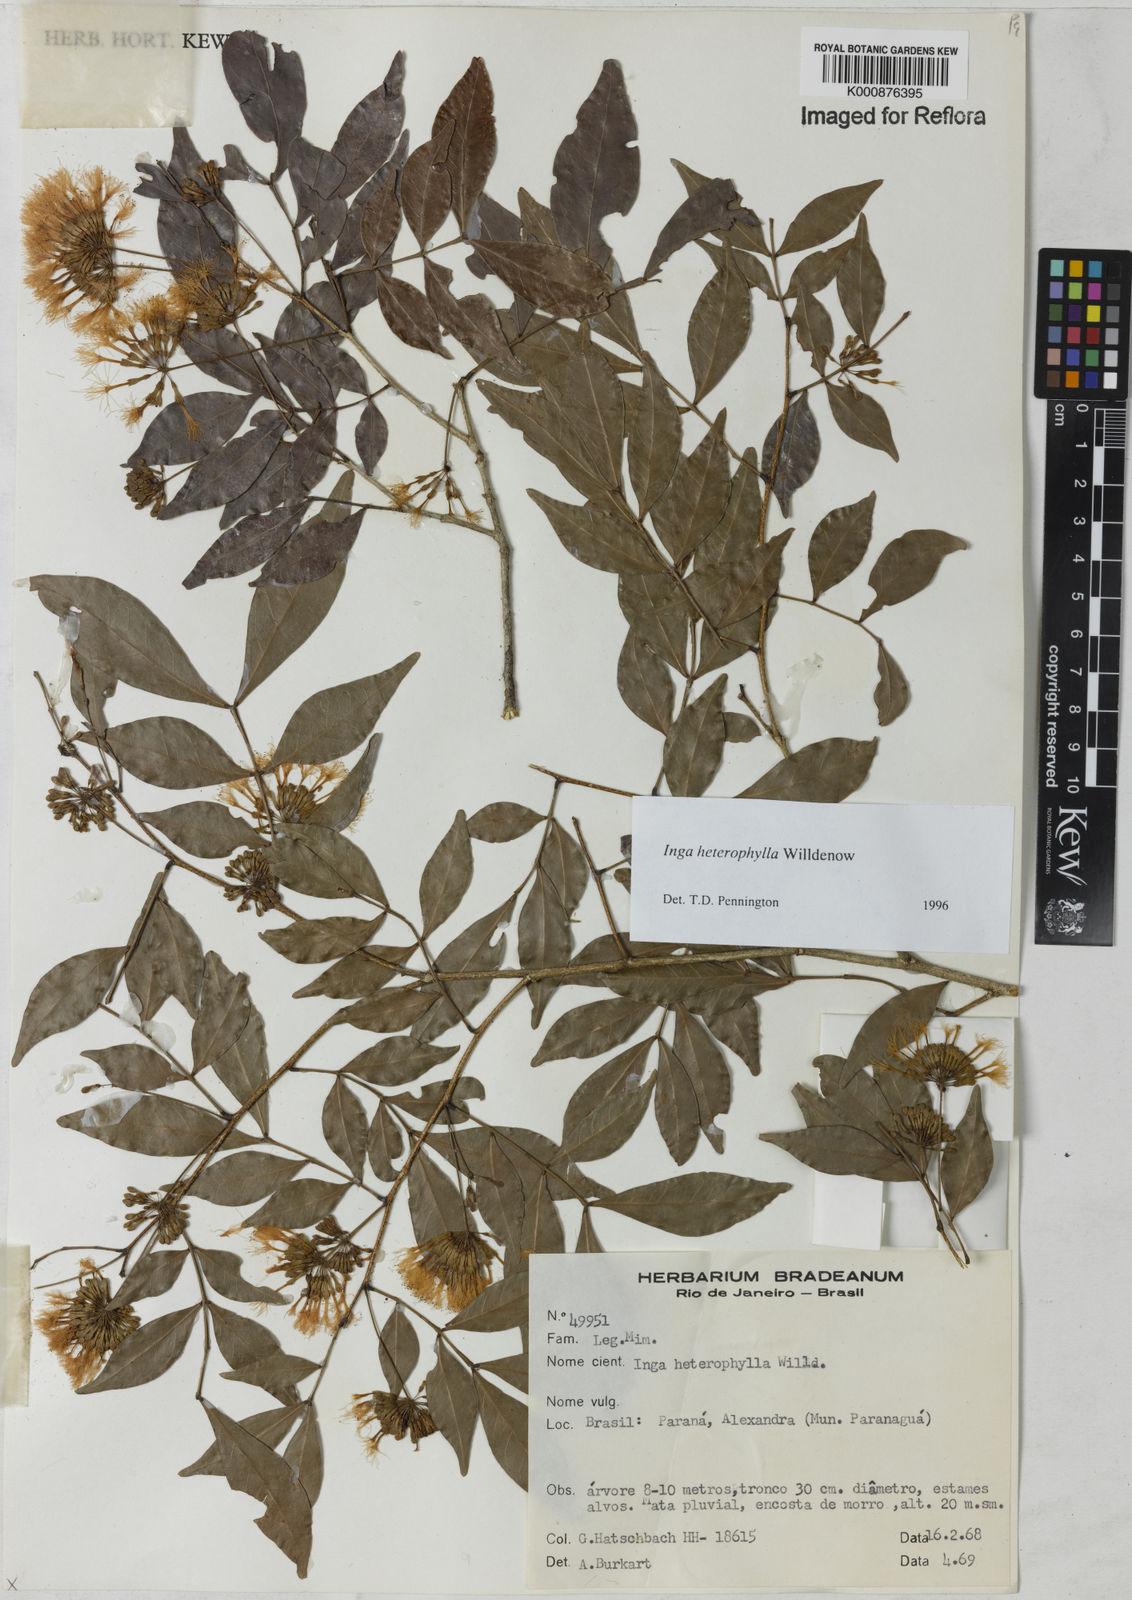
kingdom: Plantae
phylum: Tracheophyta
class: Magnoliopsida
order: Fabales
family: Fabaceae
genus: Inga
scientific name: Inga heterophylla
